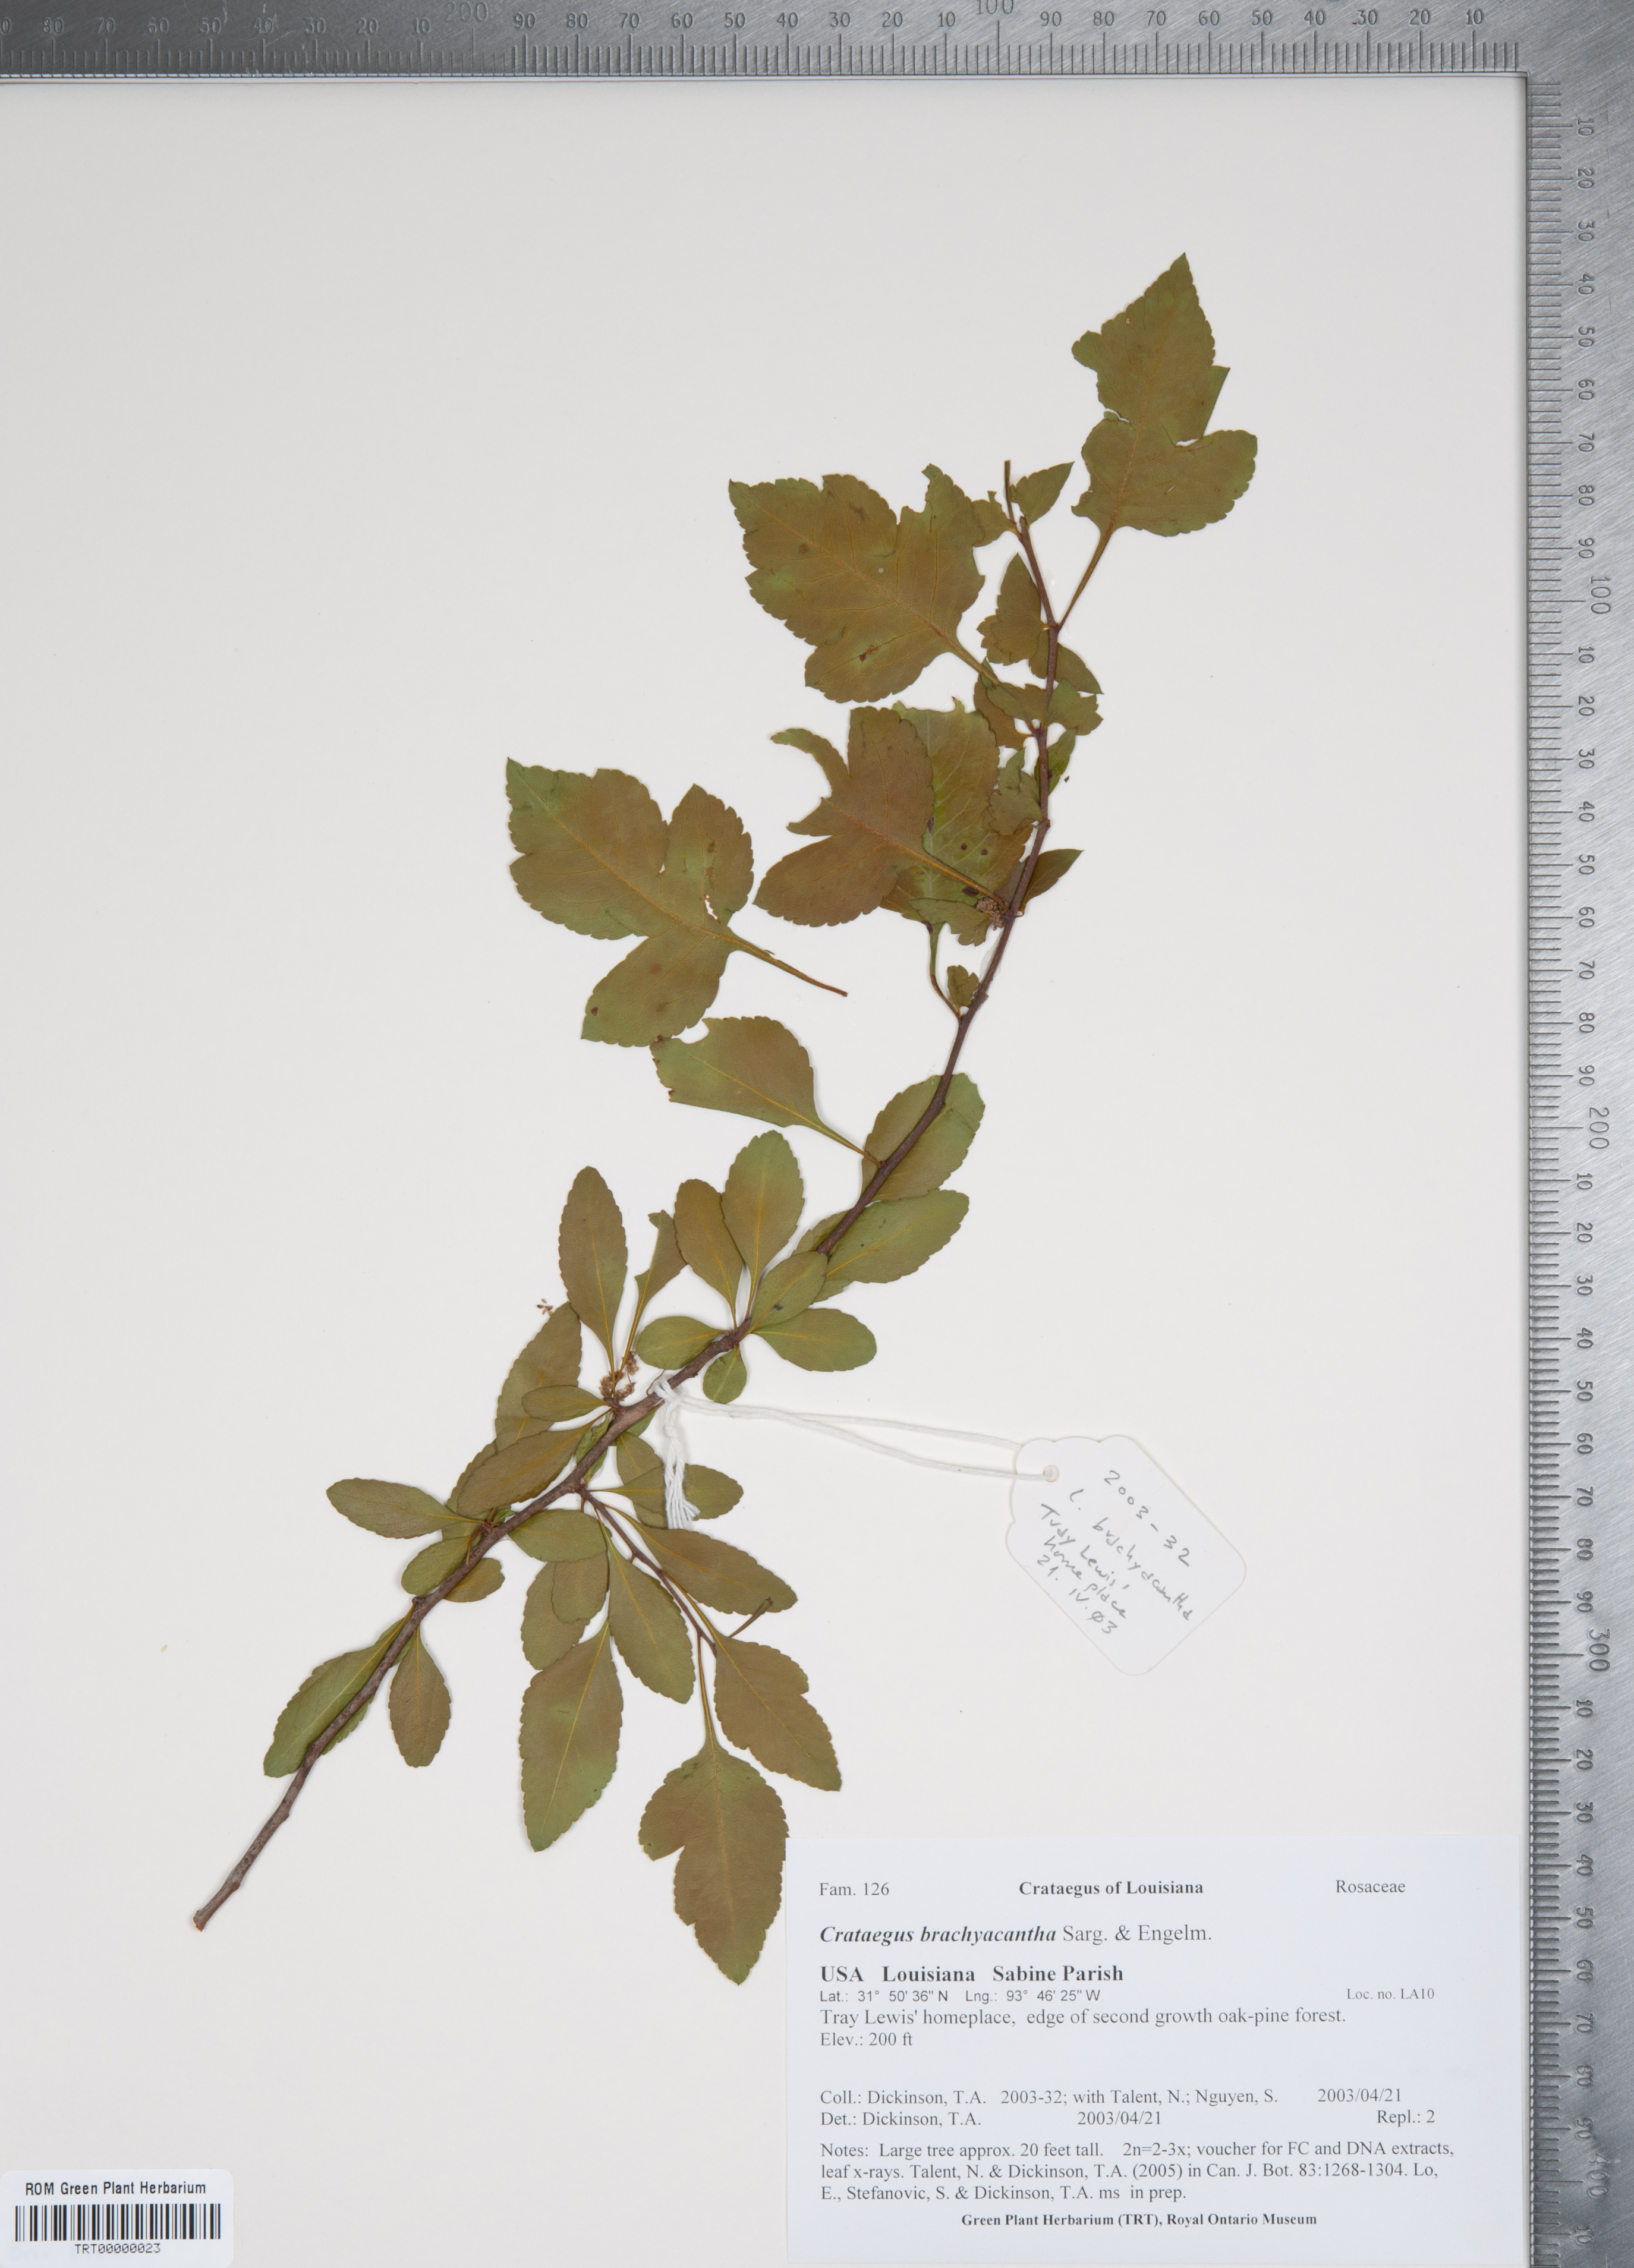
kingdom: Plantae
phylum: Tracheophyta
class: Magnoliopsida
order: Rosales
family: Rosaceae
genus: Crataegus
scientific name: Crataegus brachyacantha
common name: Blueberry-hawthorn
